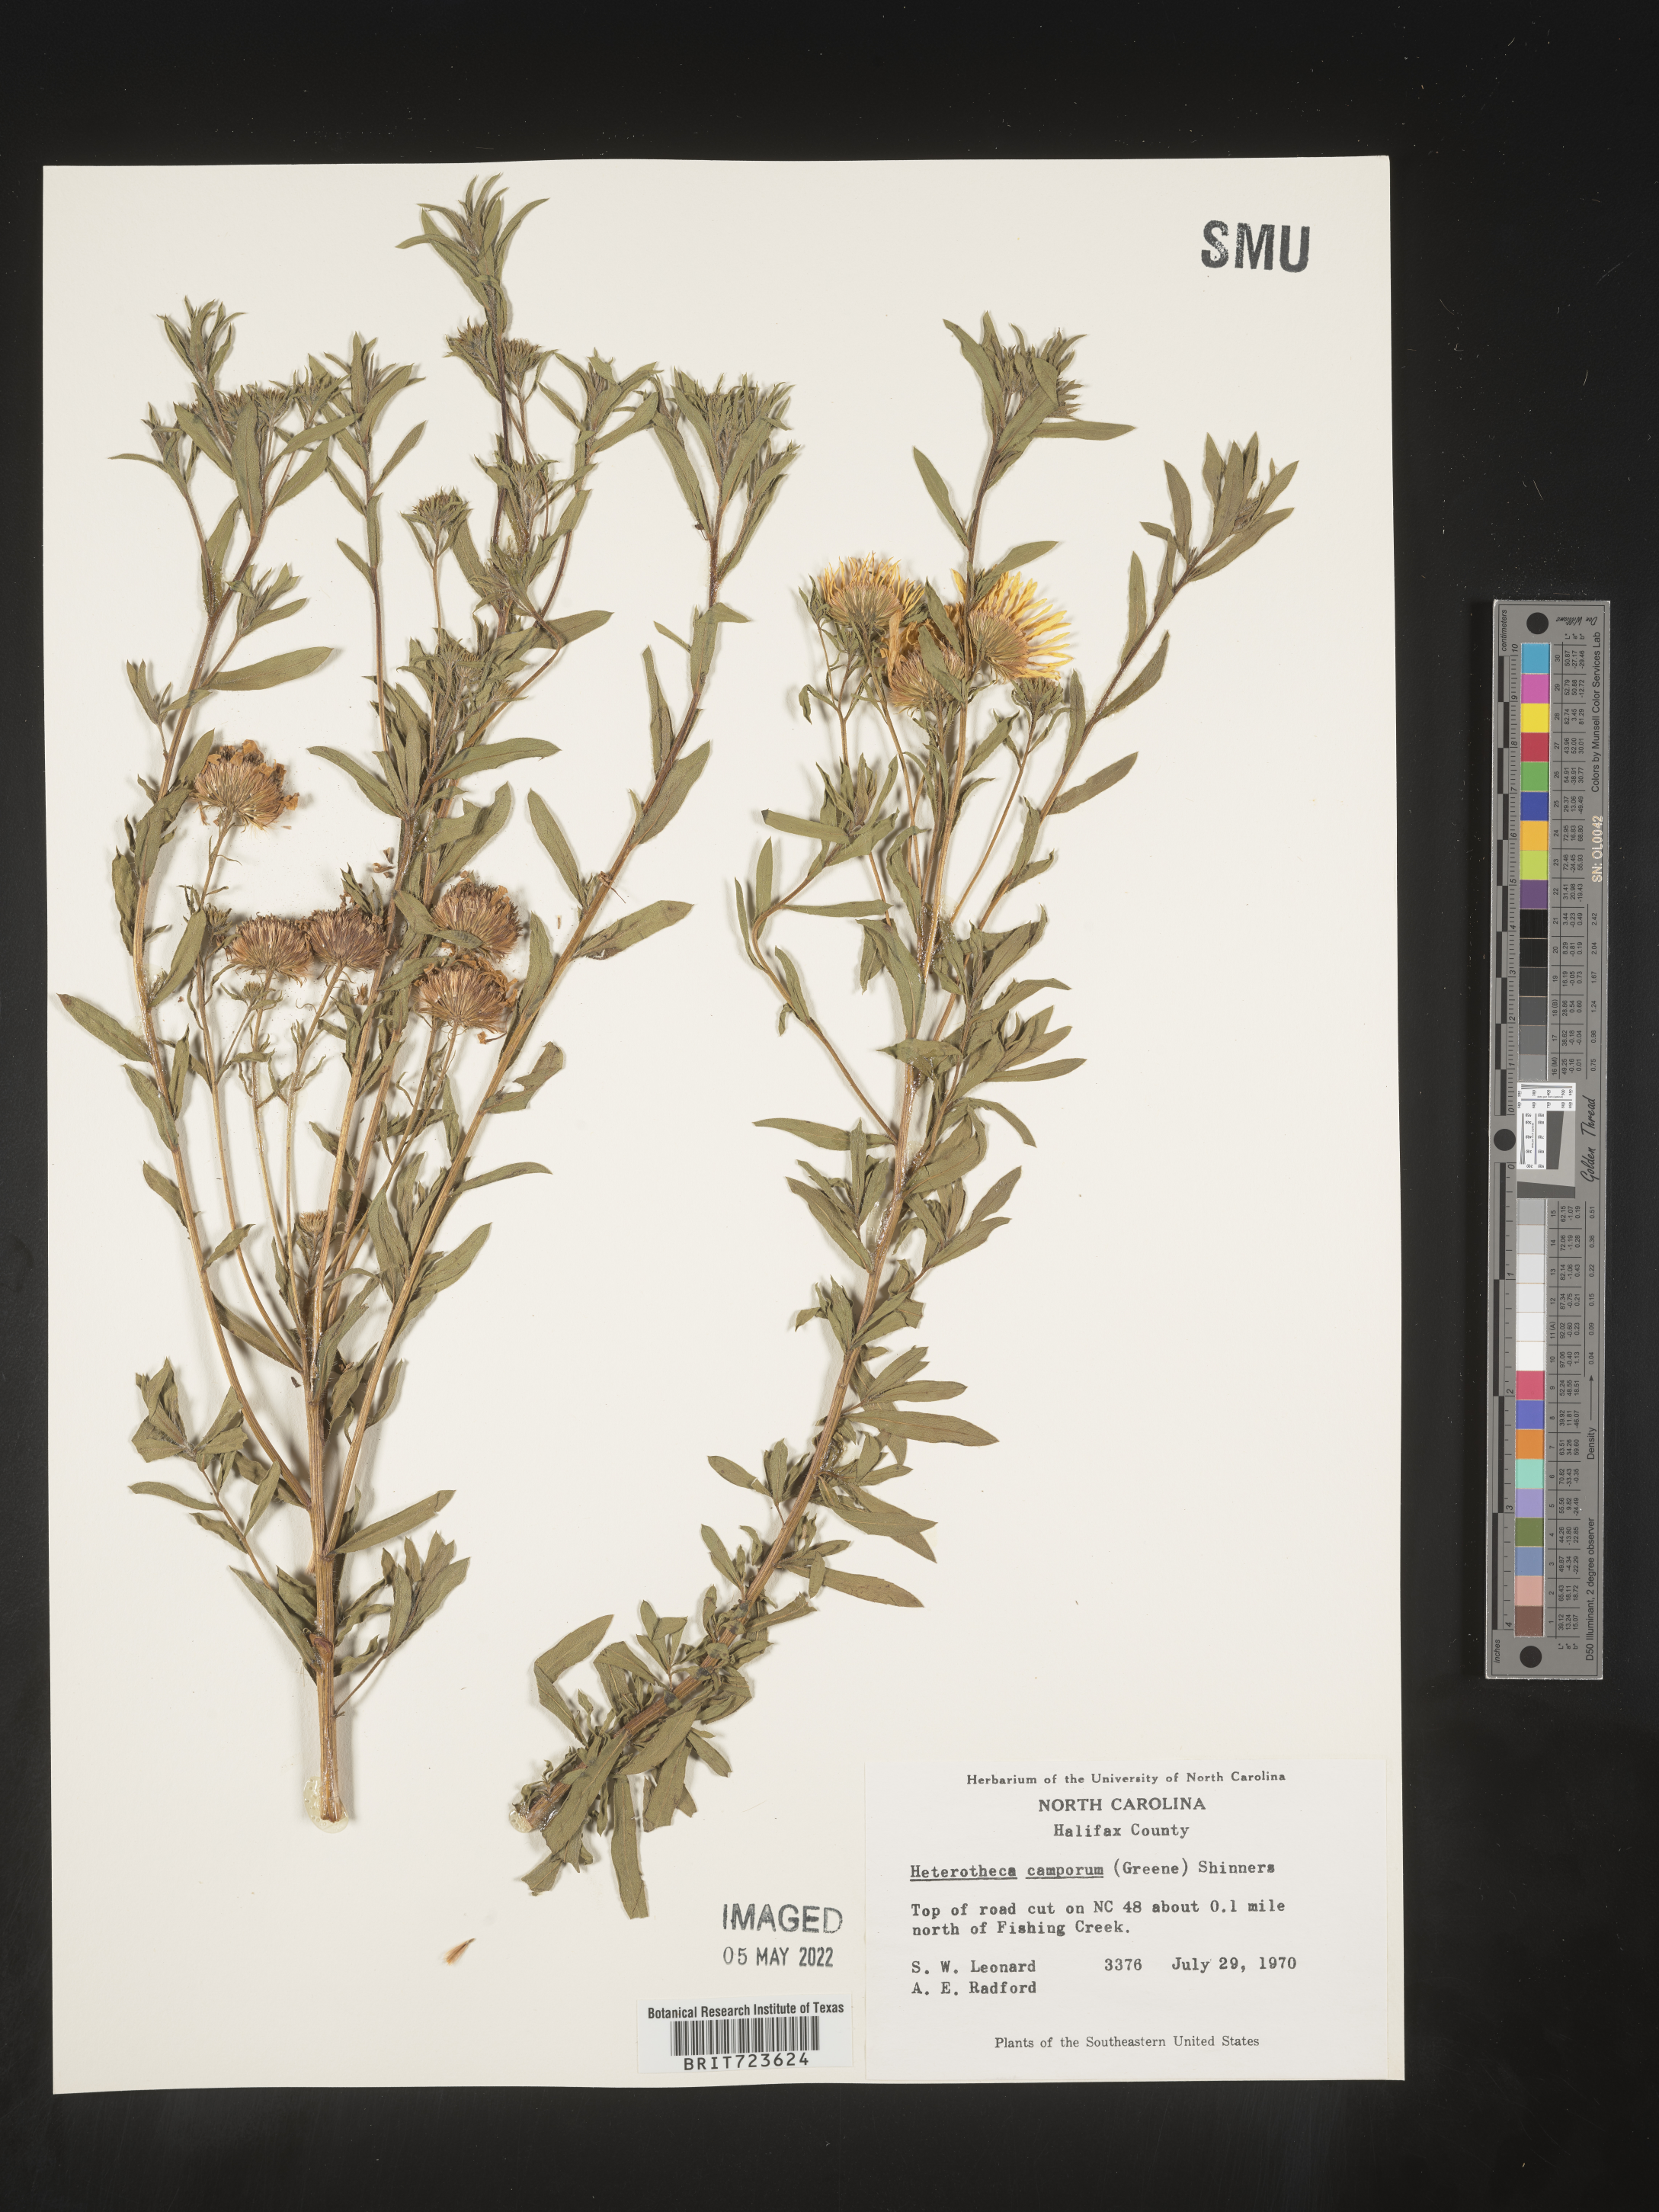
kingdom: Plantae
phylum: Tracheophyta
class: Magnoliopsida
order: Asterales
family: Asteraceae
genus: Heterotheca
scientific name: Heterotheca camporum
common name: Prairie golden-aster
